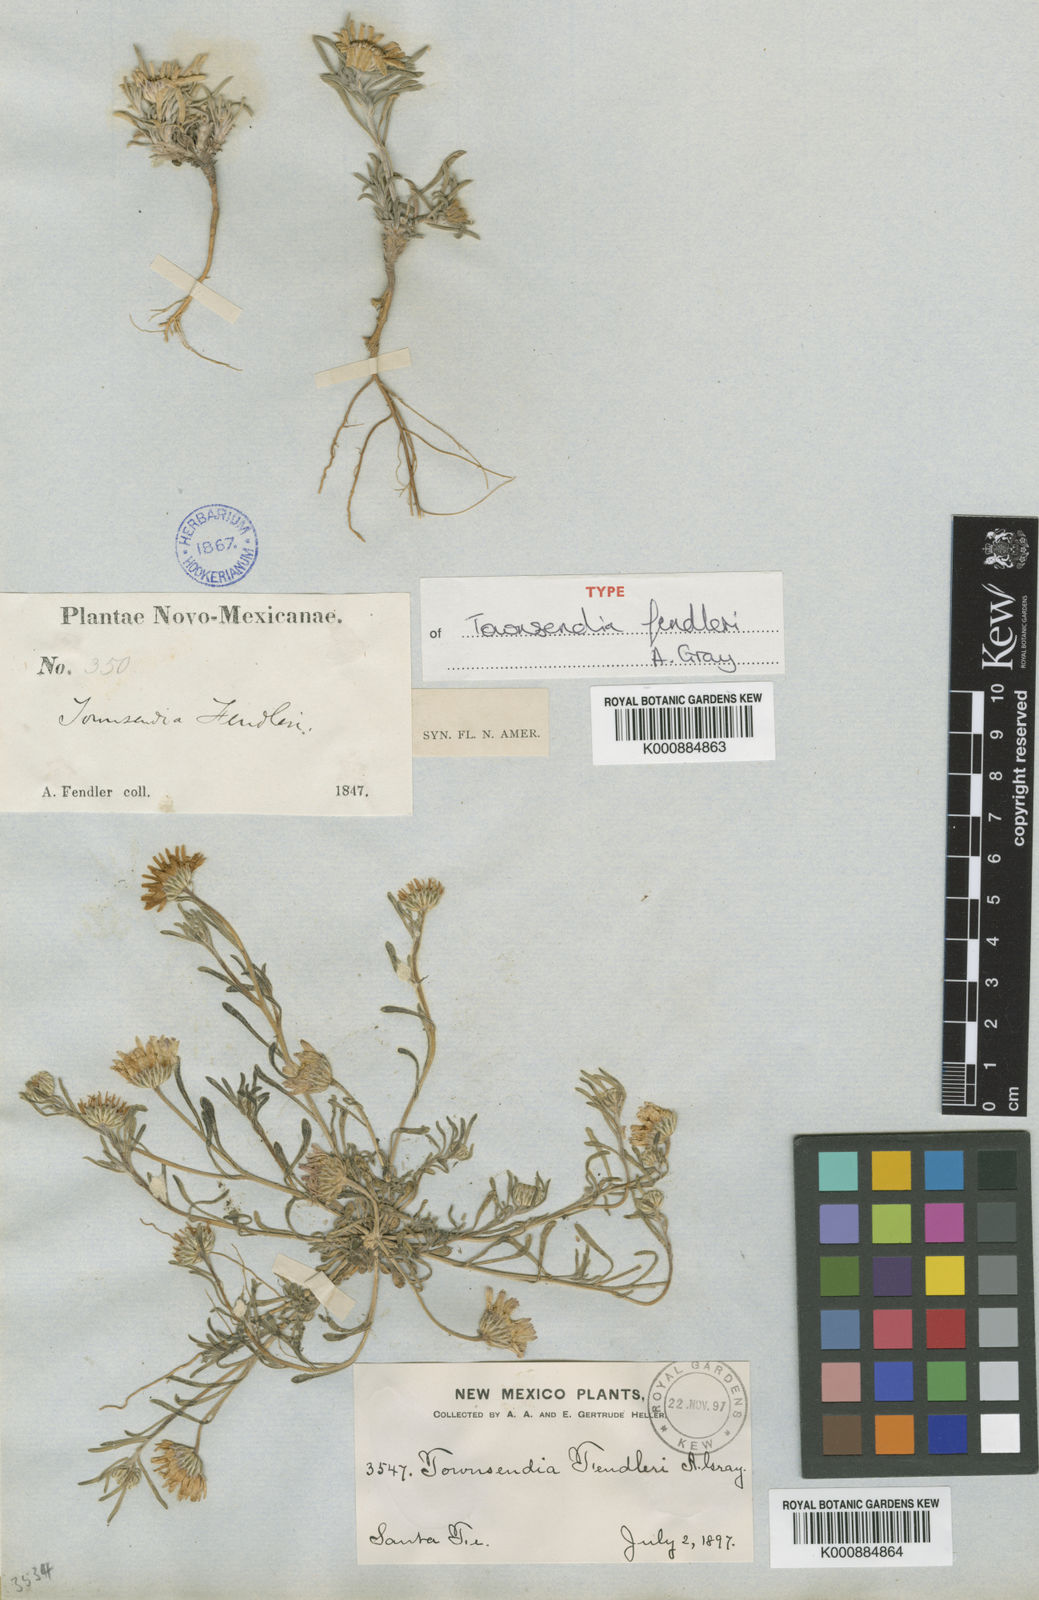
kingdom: Plantae
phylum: Tracheophyta
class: Magnoliopsida
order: Asterales
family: Asteraceae
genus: Townsendia
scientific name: Townsendia
